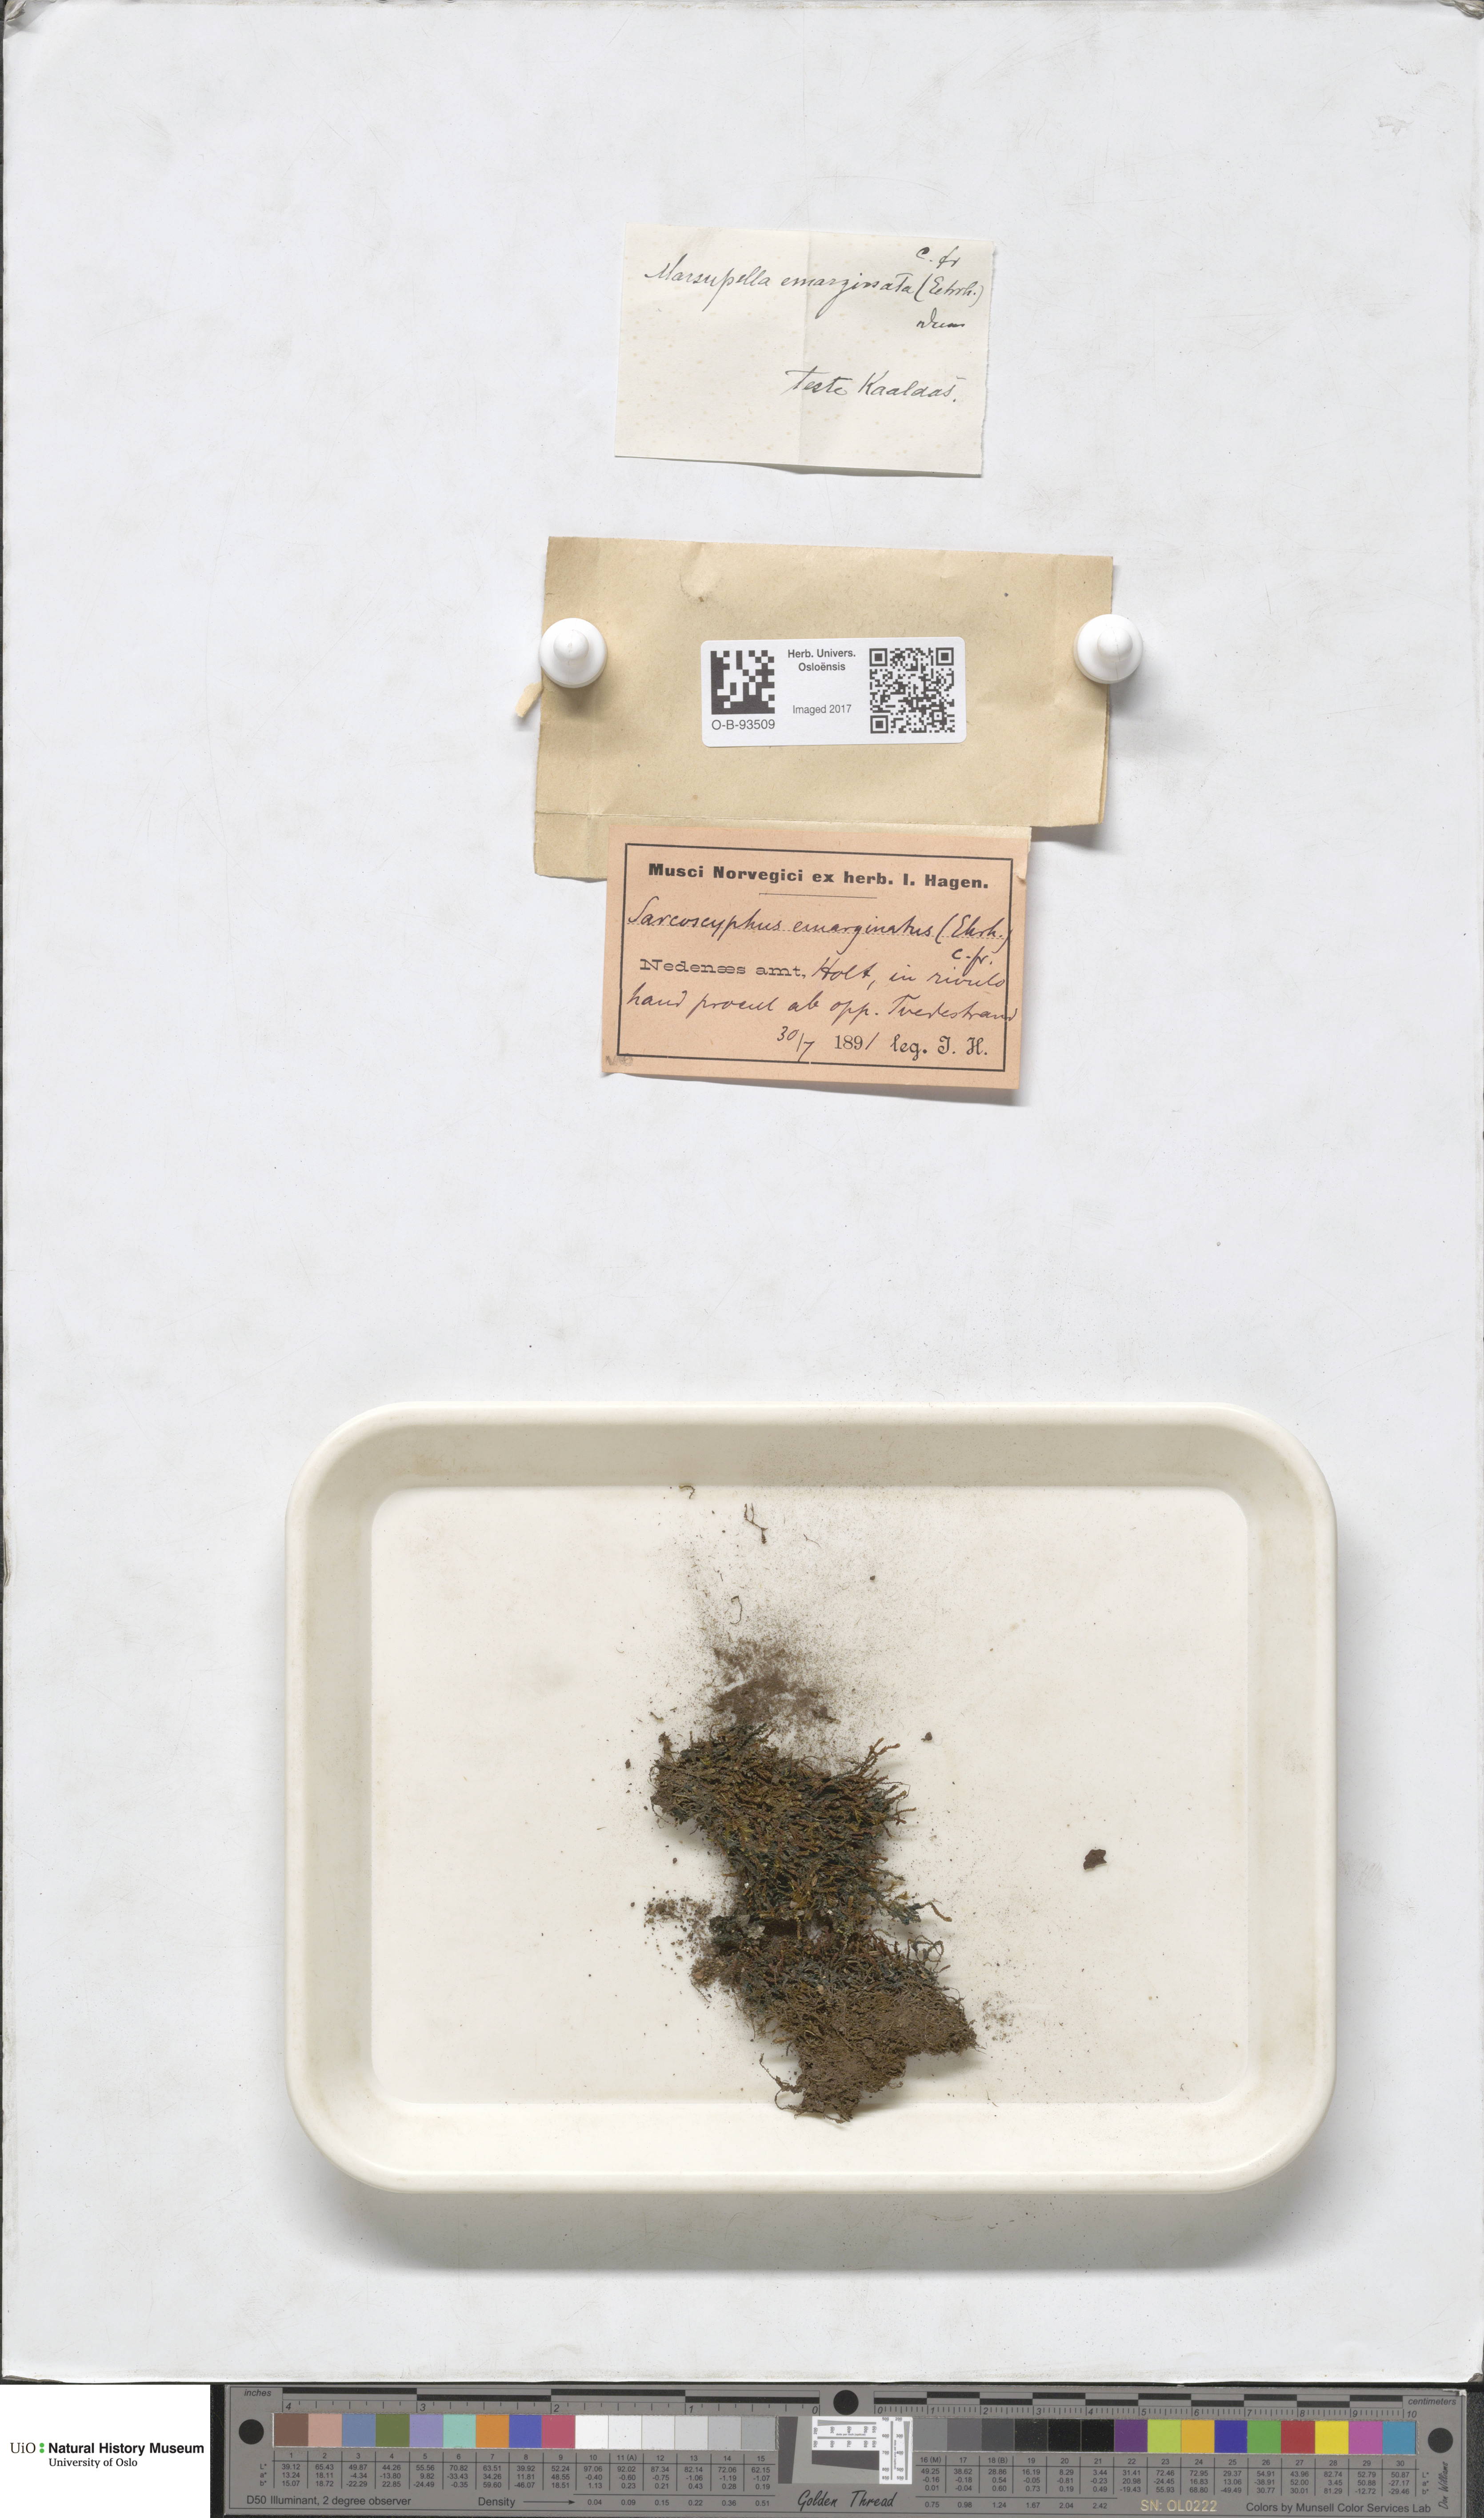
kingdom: Plantae
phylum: Marchantiophyta
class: Jungermanniopsida
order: Jungermanniales
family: Gymnomitriaceae
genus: Marsupella
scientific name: Marsupella emarginata
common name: Notched rustwort
